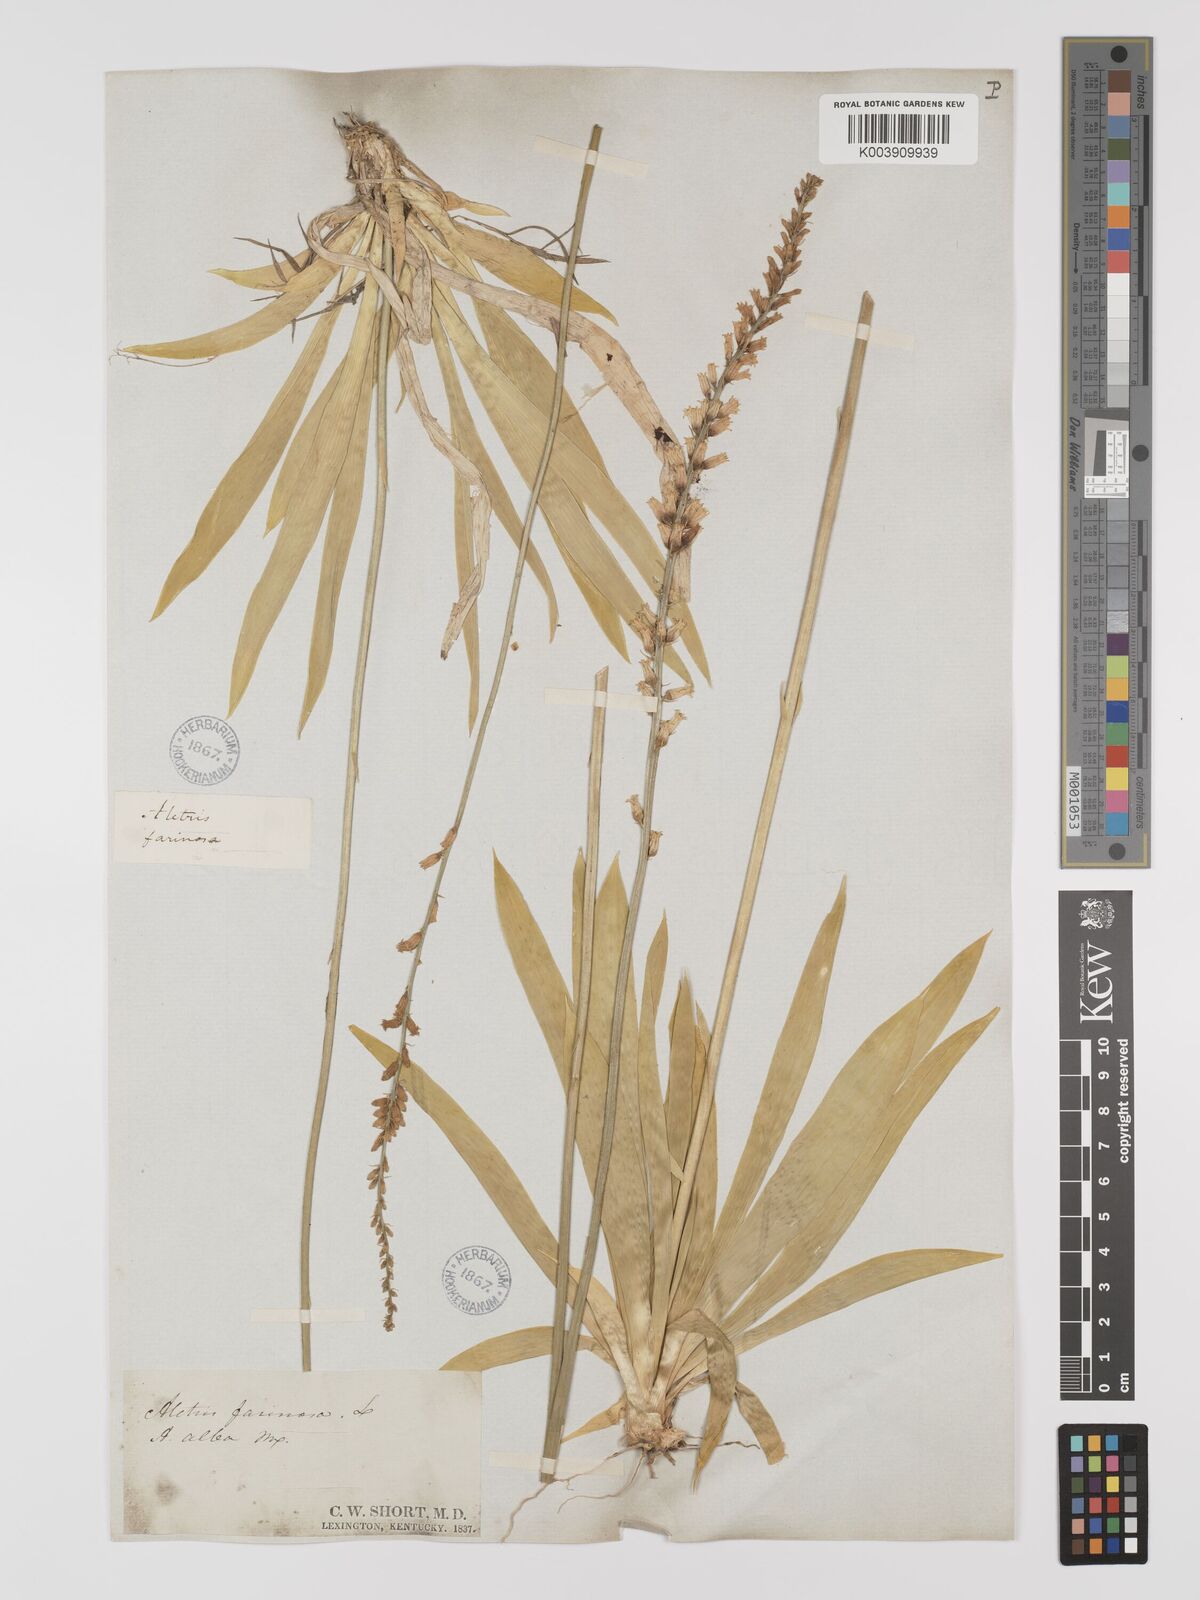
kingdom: Plantae
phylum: Tracheophyta
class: Liliopsida
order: Dioscoreales
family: Nartheciaceae
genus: Aletris
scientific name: Aletris farinosa
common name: Colicroot
